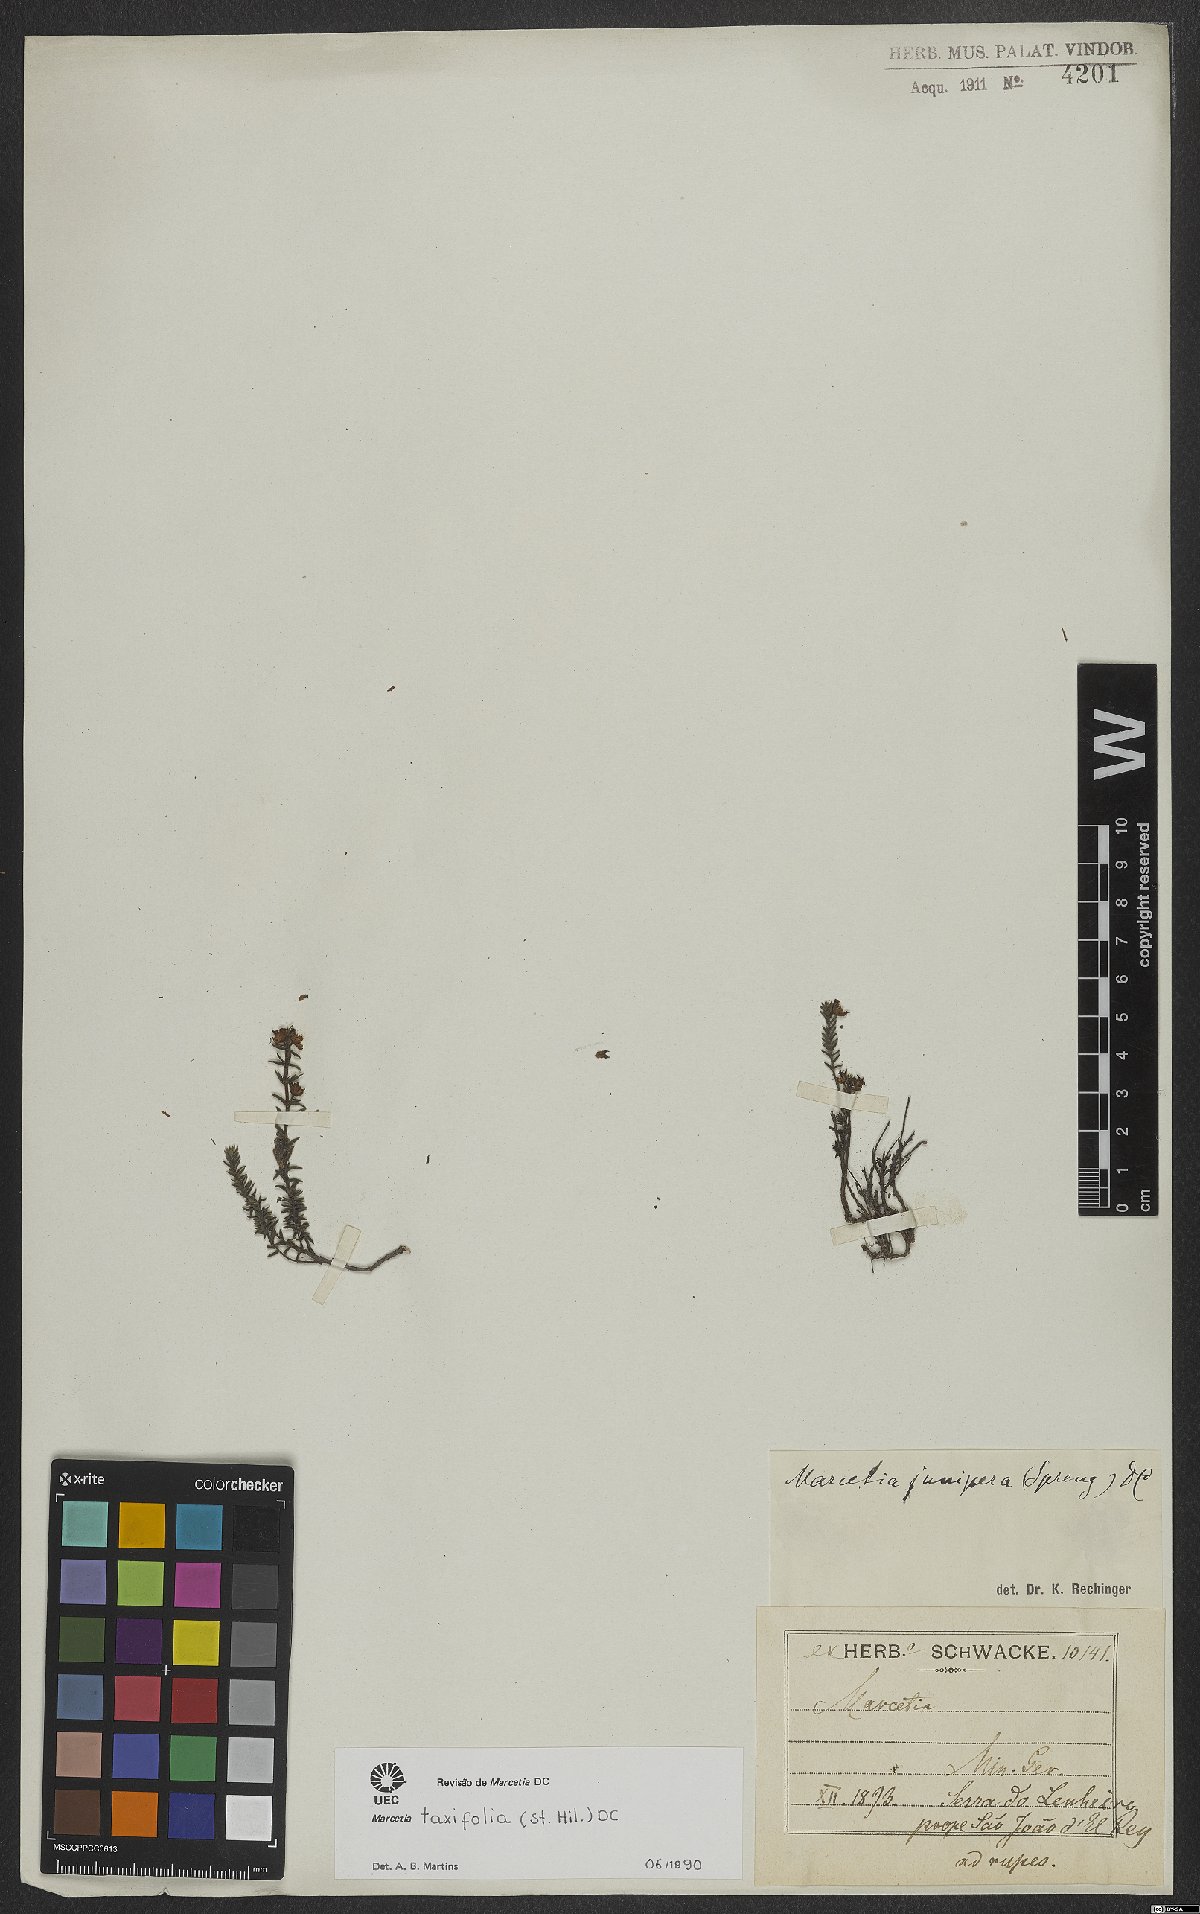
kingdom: Plantae
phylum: Tracheophyta
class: Magnoliopsida
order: Myrtales
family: Melastomataceae
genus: Marcetia
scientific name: Marcetia taxifolia
